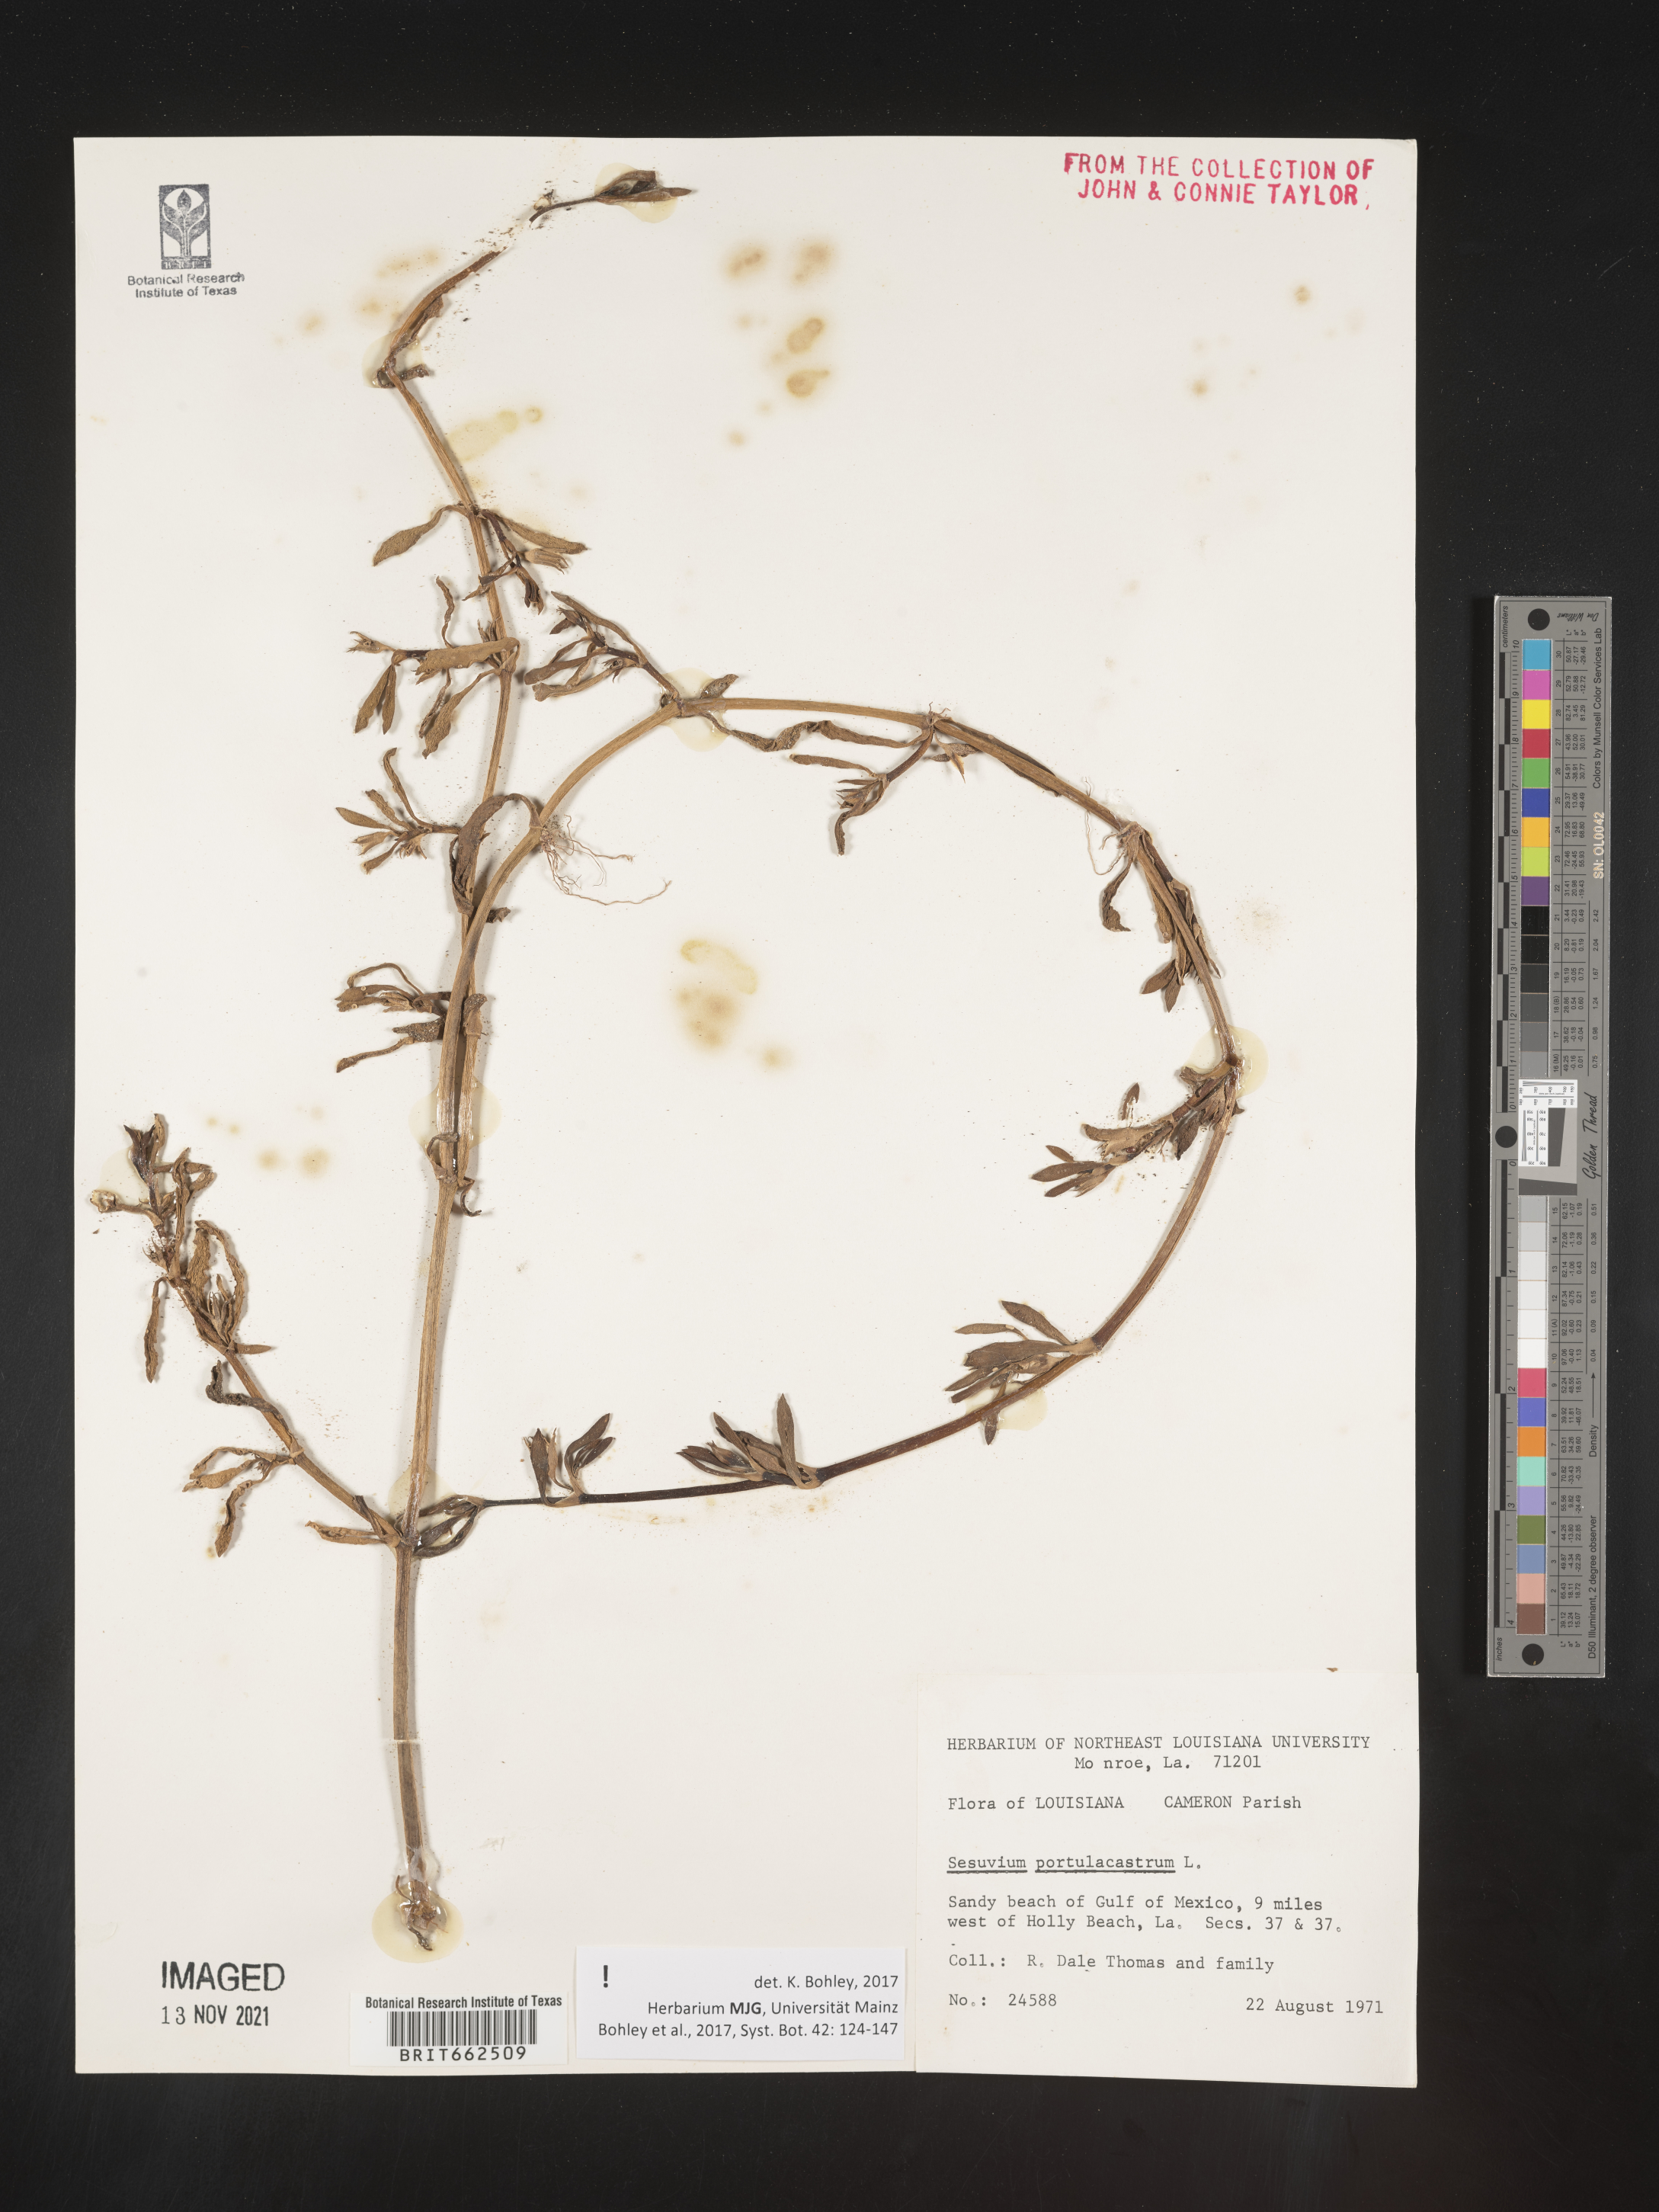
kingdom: Plantae
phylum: Tracheophyta
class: Magnoliopsida
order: Caryophyllales
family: Aizoaceae
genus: Sesuvium
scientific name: Sesuvium portulacastrum
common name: Sea-purslane
